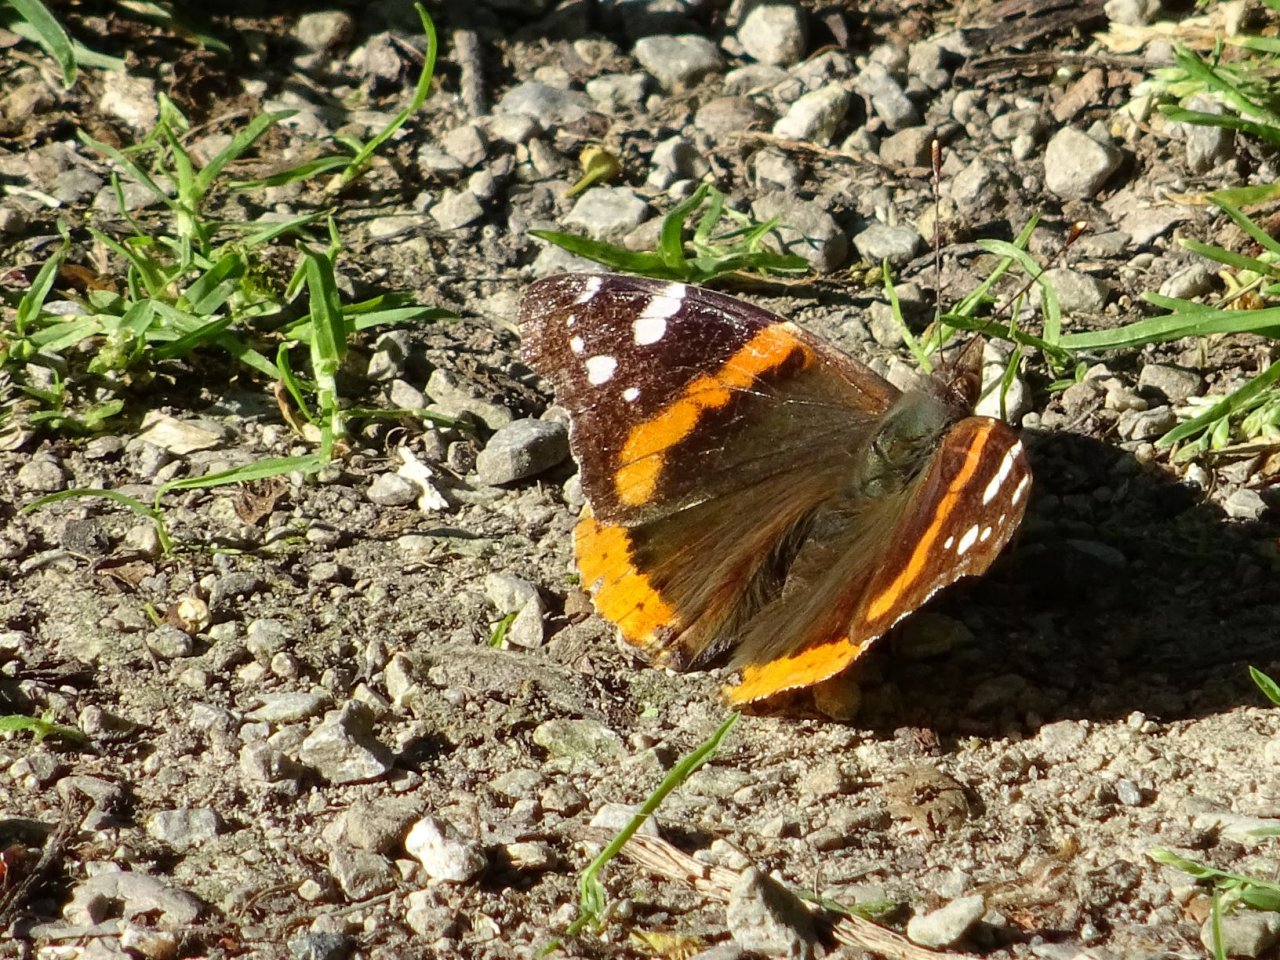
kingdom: Animalia
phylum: Arthropoda
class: Insecta
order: Lepidoptera
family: Nymphalidae
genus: Vanessa
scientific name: Vanessa atalanta
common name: Red Admiral
